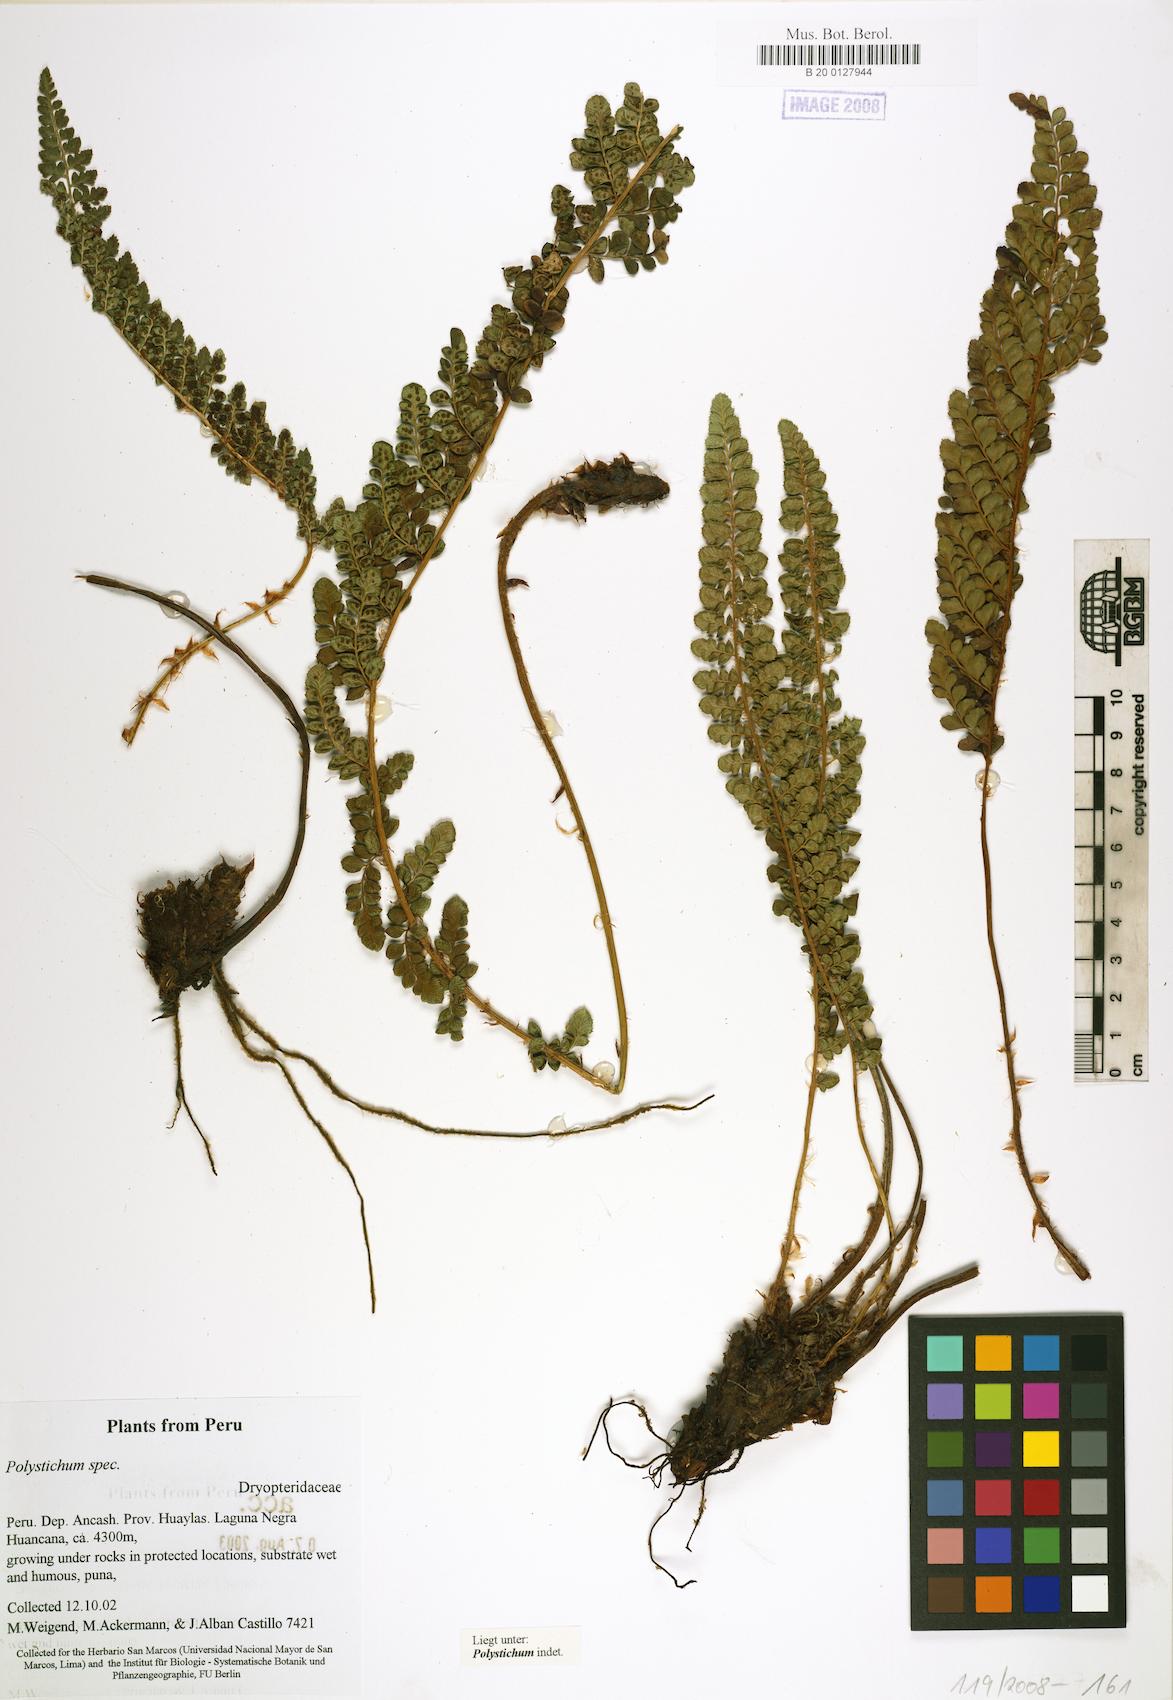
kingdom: Plantae
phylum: Tracheophyta
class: Polypodiopsida
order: Polypodiales
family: Dryopteridaceae
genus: Polystichum
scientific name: Polystichum
